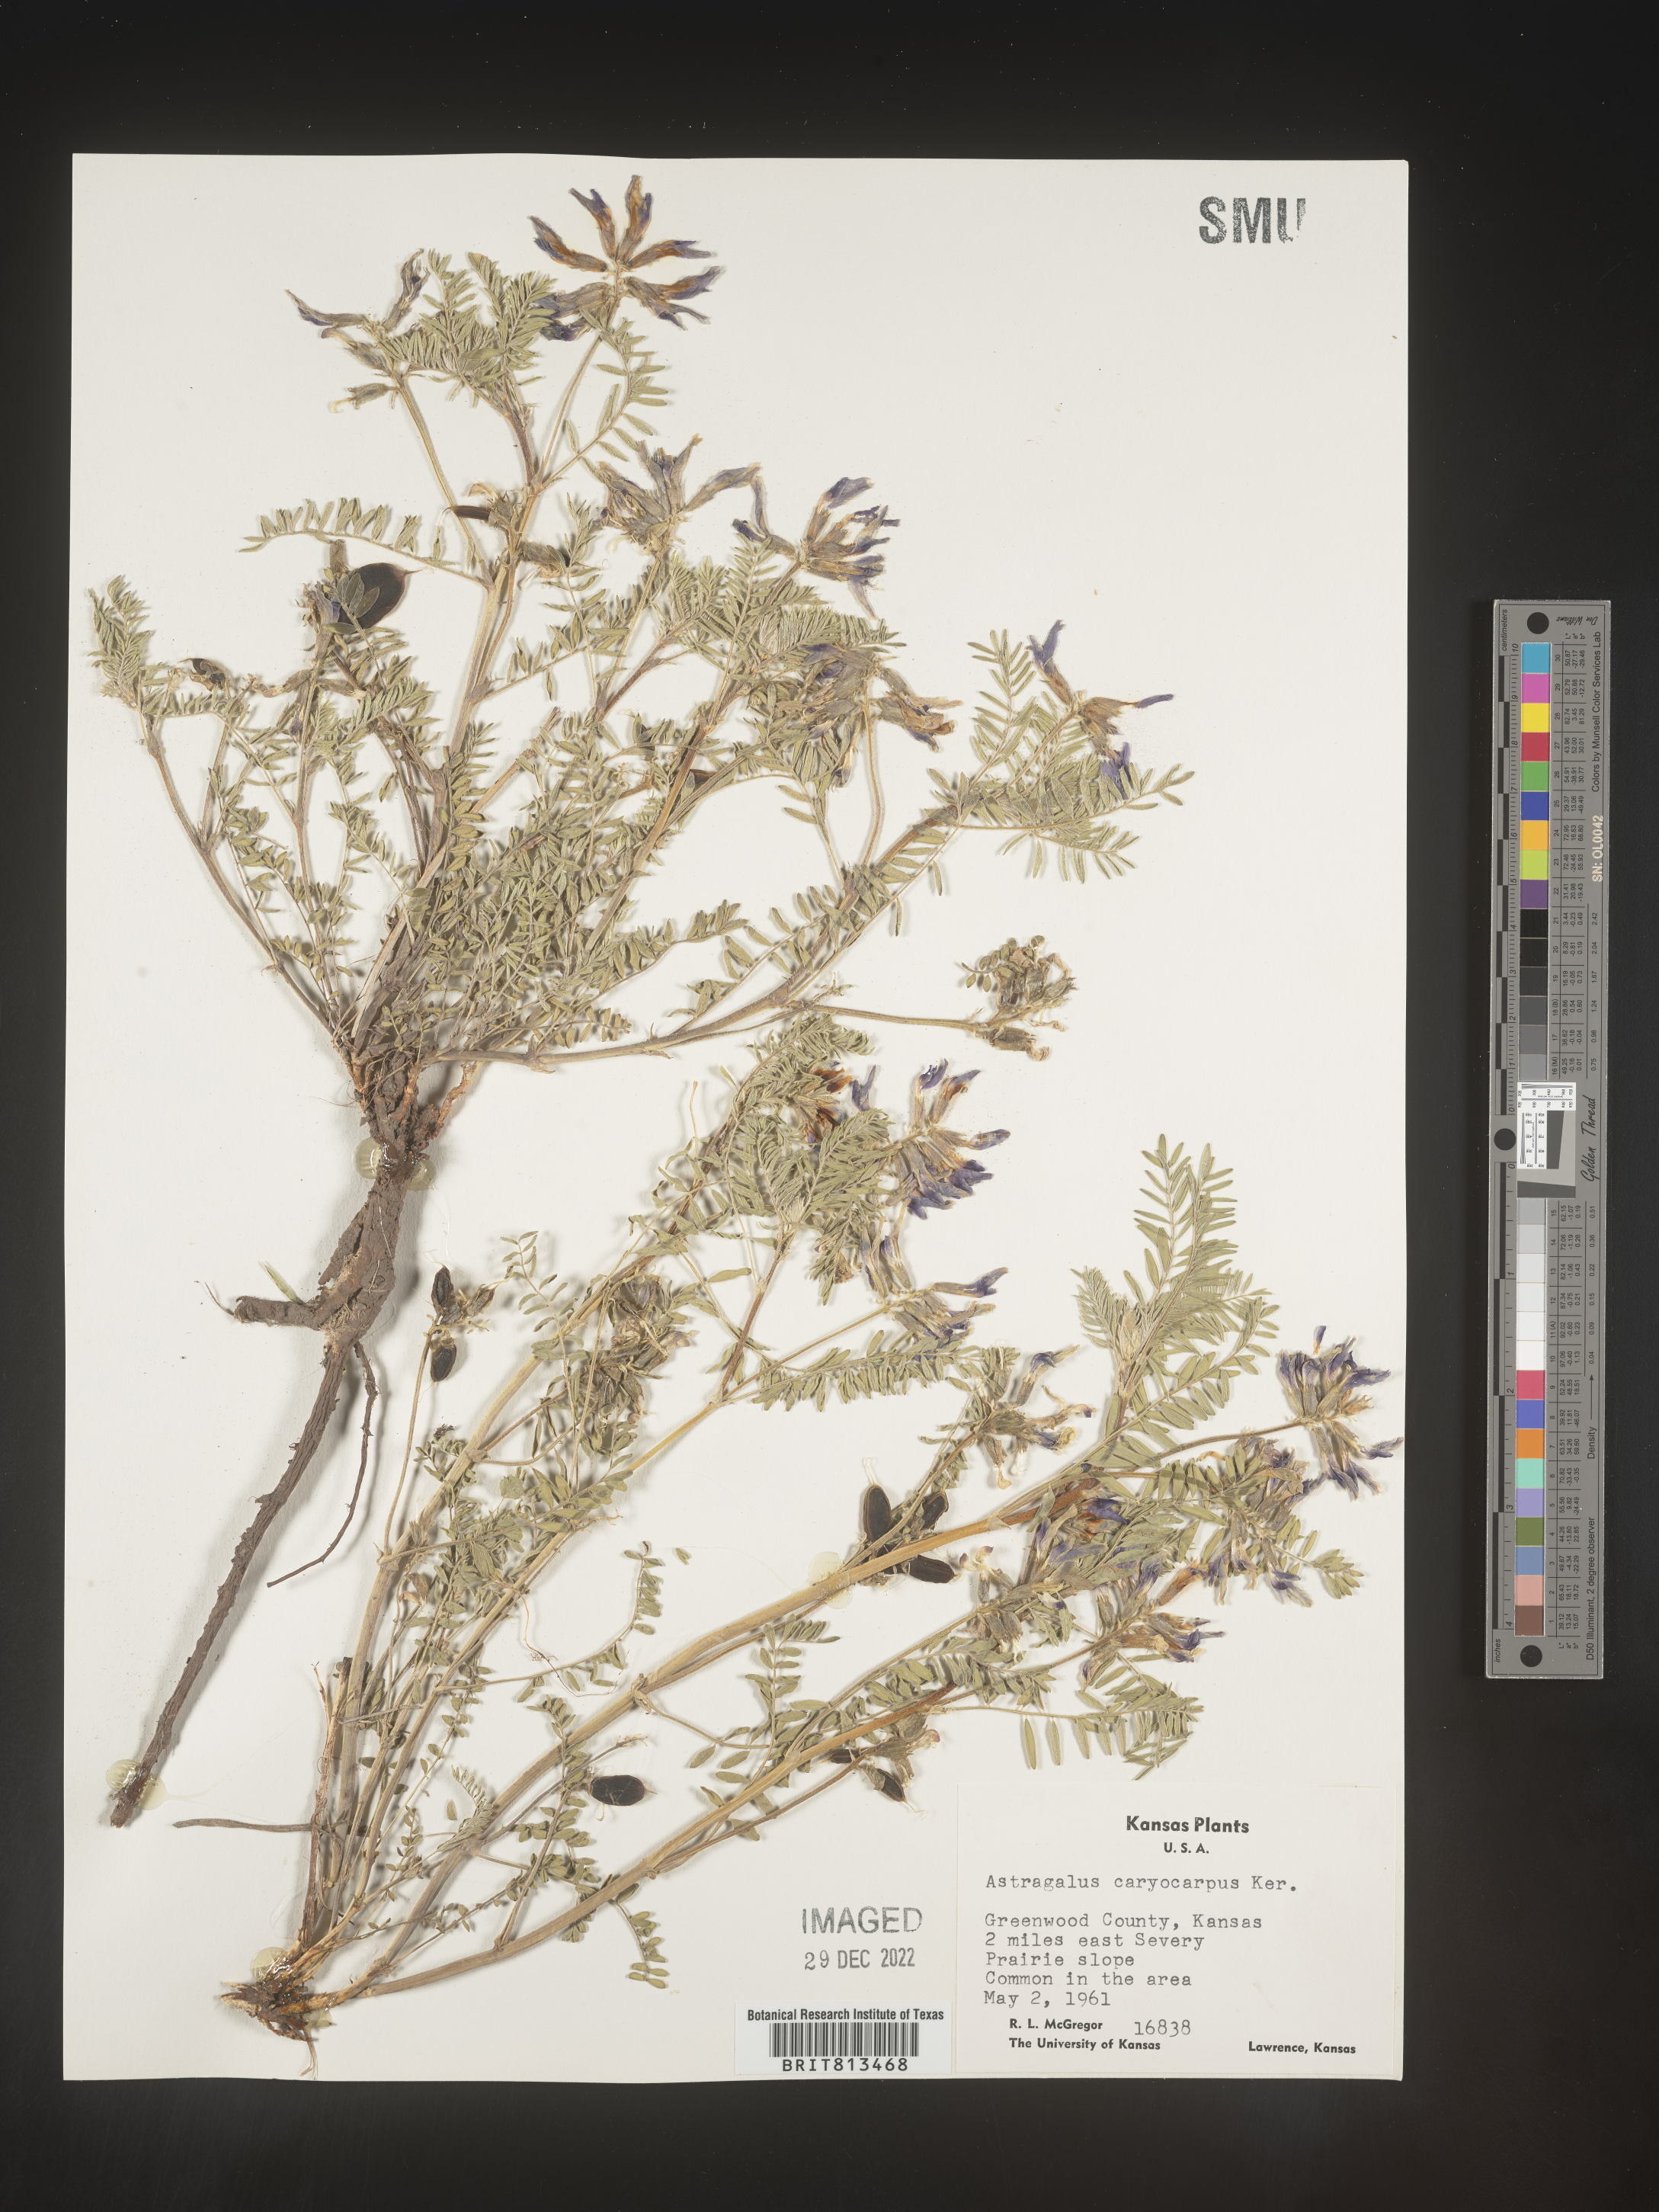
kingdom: Plantae
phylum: Tracheophyta
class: Magnoliopsida
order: Fabales
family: Fabaceae
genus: Astragalus
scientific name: Astragalus
